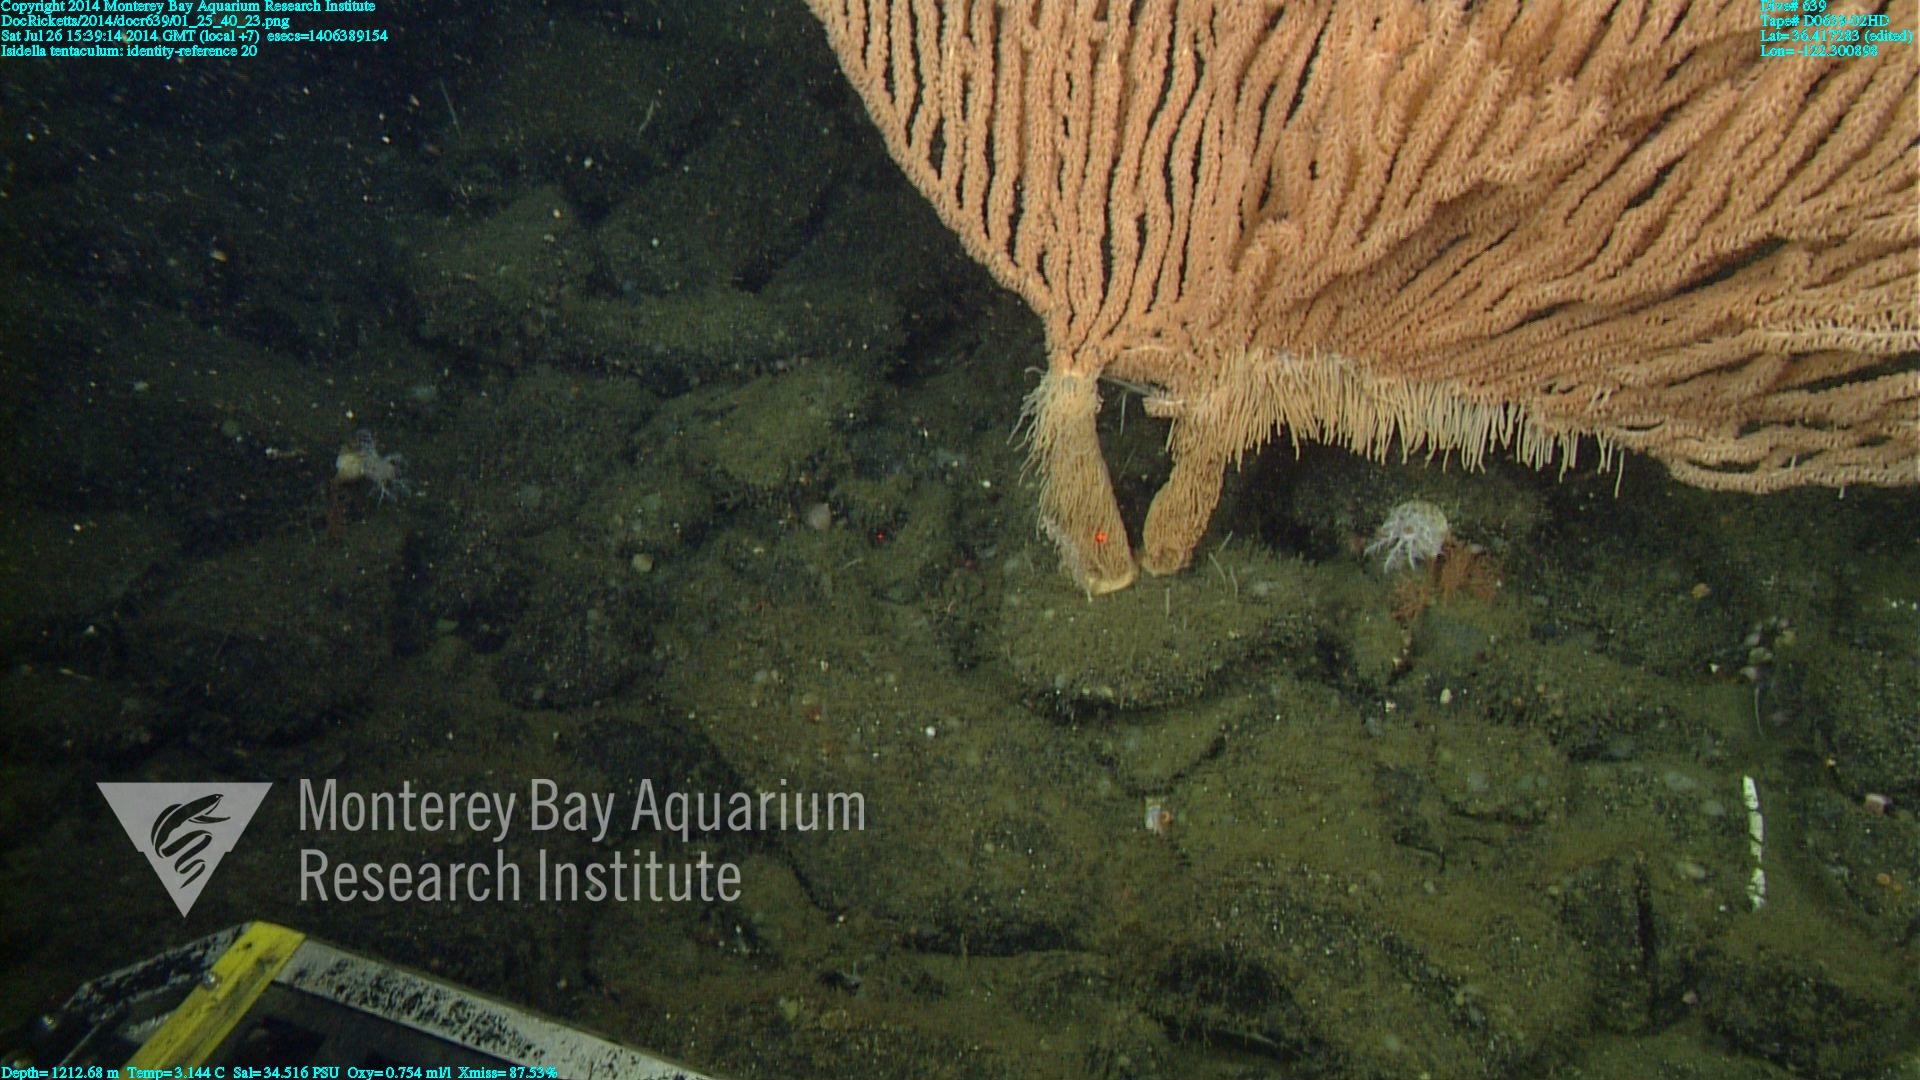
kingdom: Animalia
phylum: Cnidaria
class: Anthozoa
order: Scleralcyonacea
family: Keratoisididae
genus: Isidella
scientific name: Isidella tentaculum
